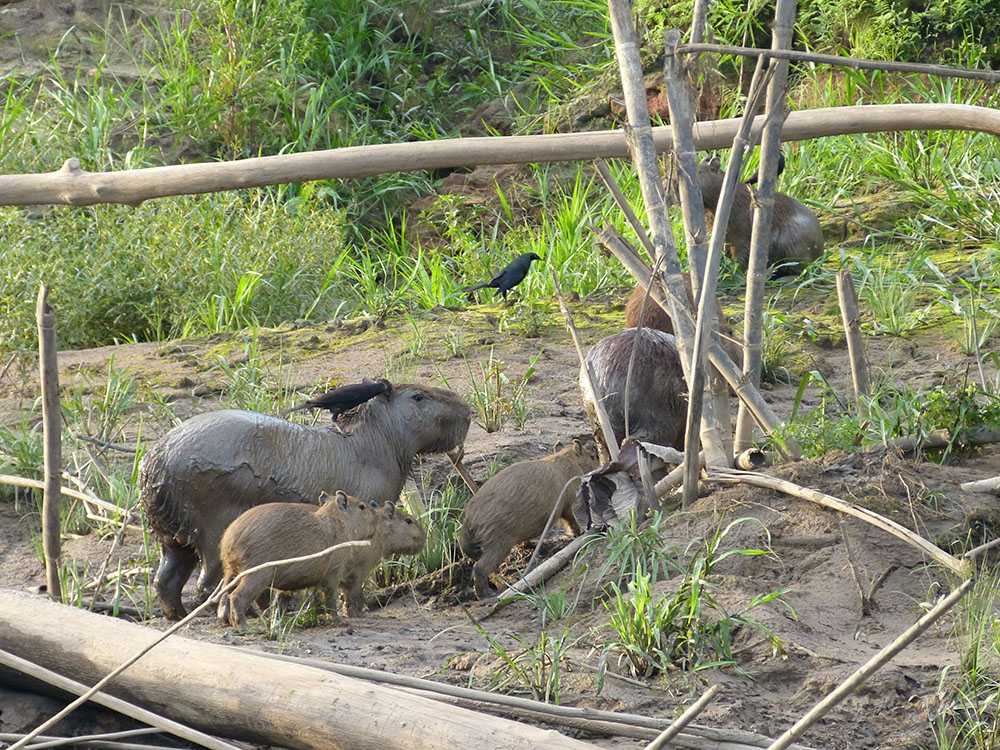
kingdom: Animalia
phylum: Chordata
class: Mammalia
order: Rodentia
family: Caviidae
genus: Hydrochoerus
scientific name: Hydrochoerus hydrochaeris
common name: Capybara
